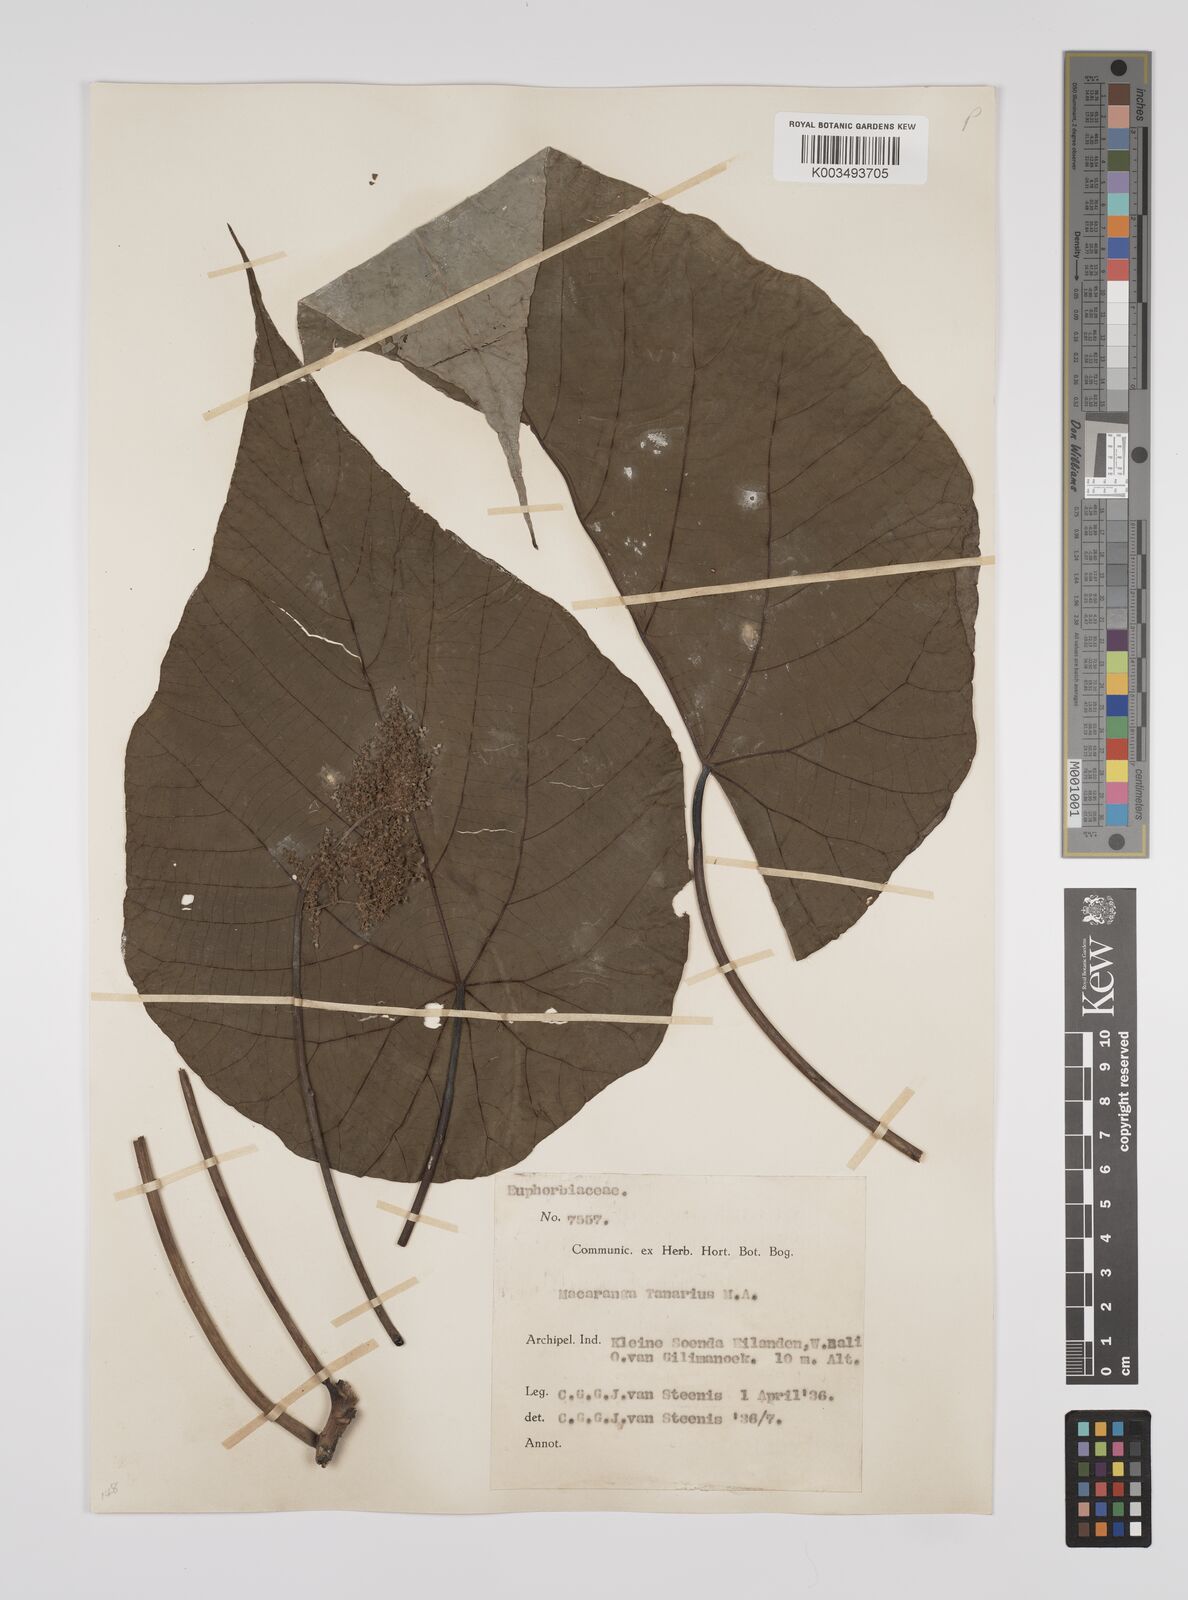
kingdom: Plantae
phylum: Tracheophyta
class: Magnoliopsida
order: Malpighiales
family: Euphorbiaceae
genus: Macaranga
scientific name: Macaranga tanarius
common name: Parasol leaf tree
